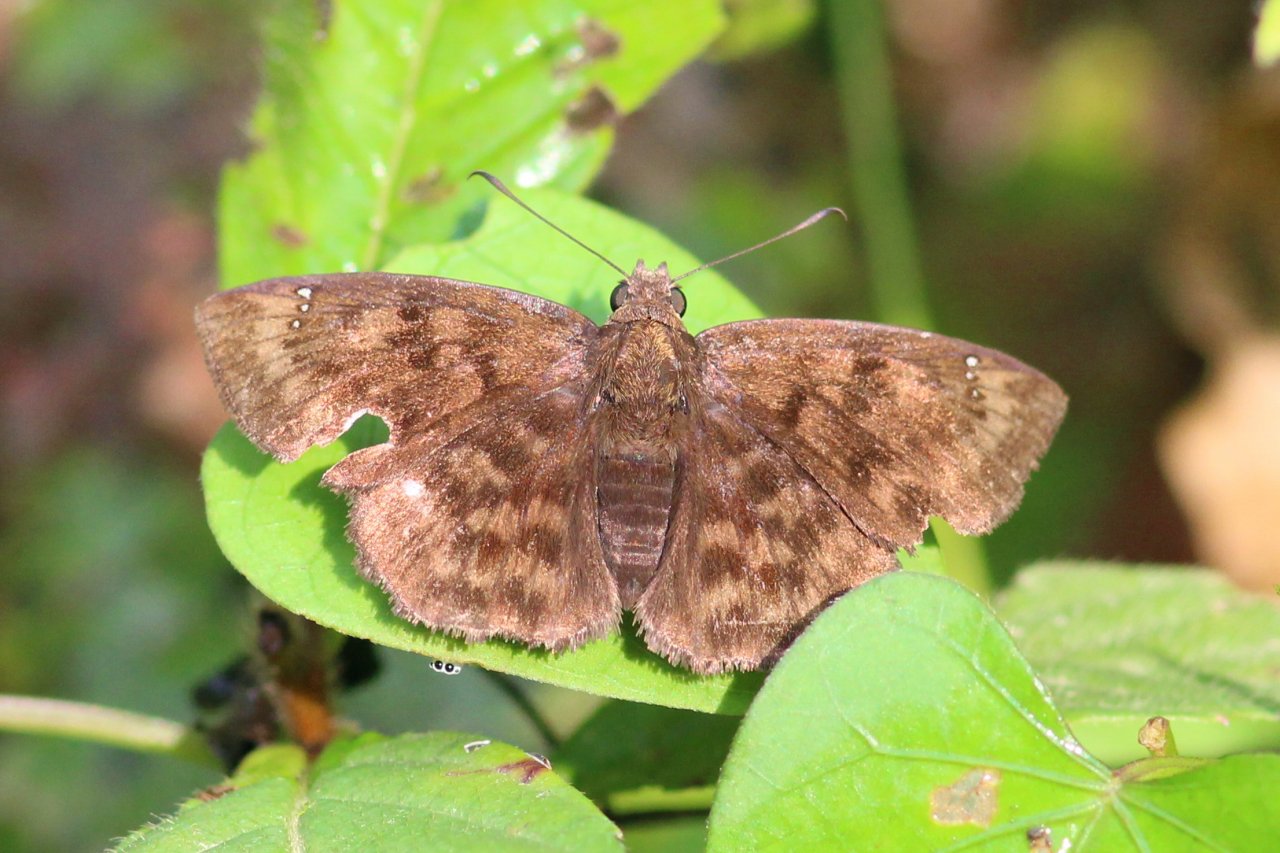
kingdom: Animalia
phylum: Arthropoda
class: Insecta
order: Lepidoptera
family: Hesperiidae
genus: Nisoniades
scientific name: Nisoniades bessus
